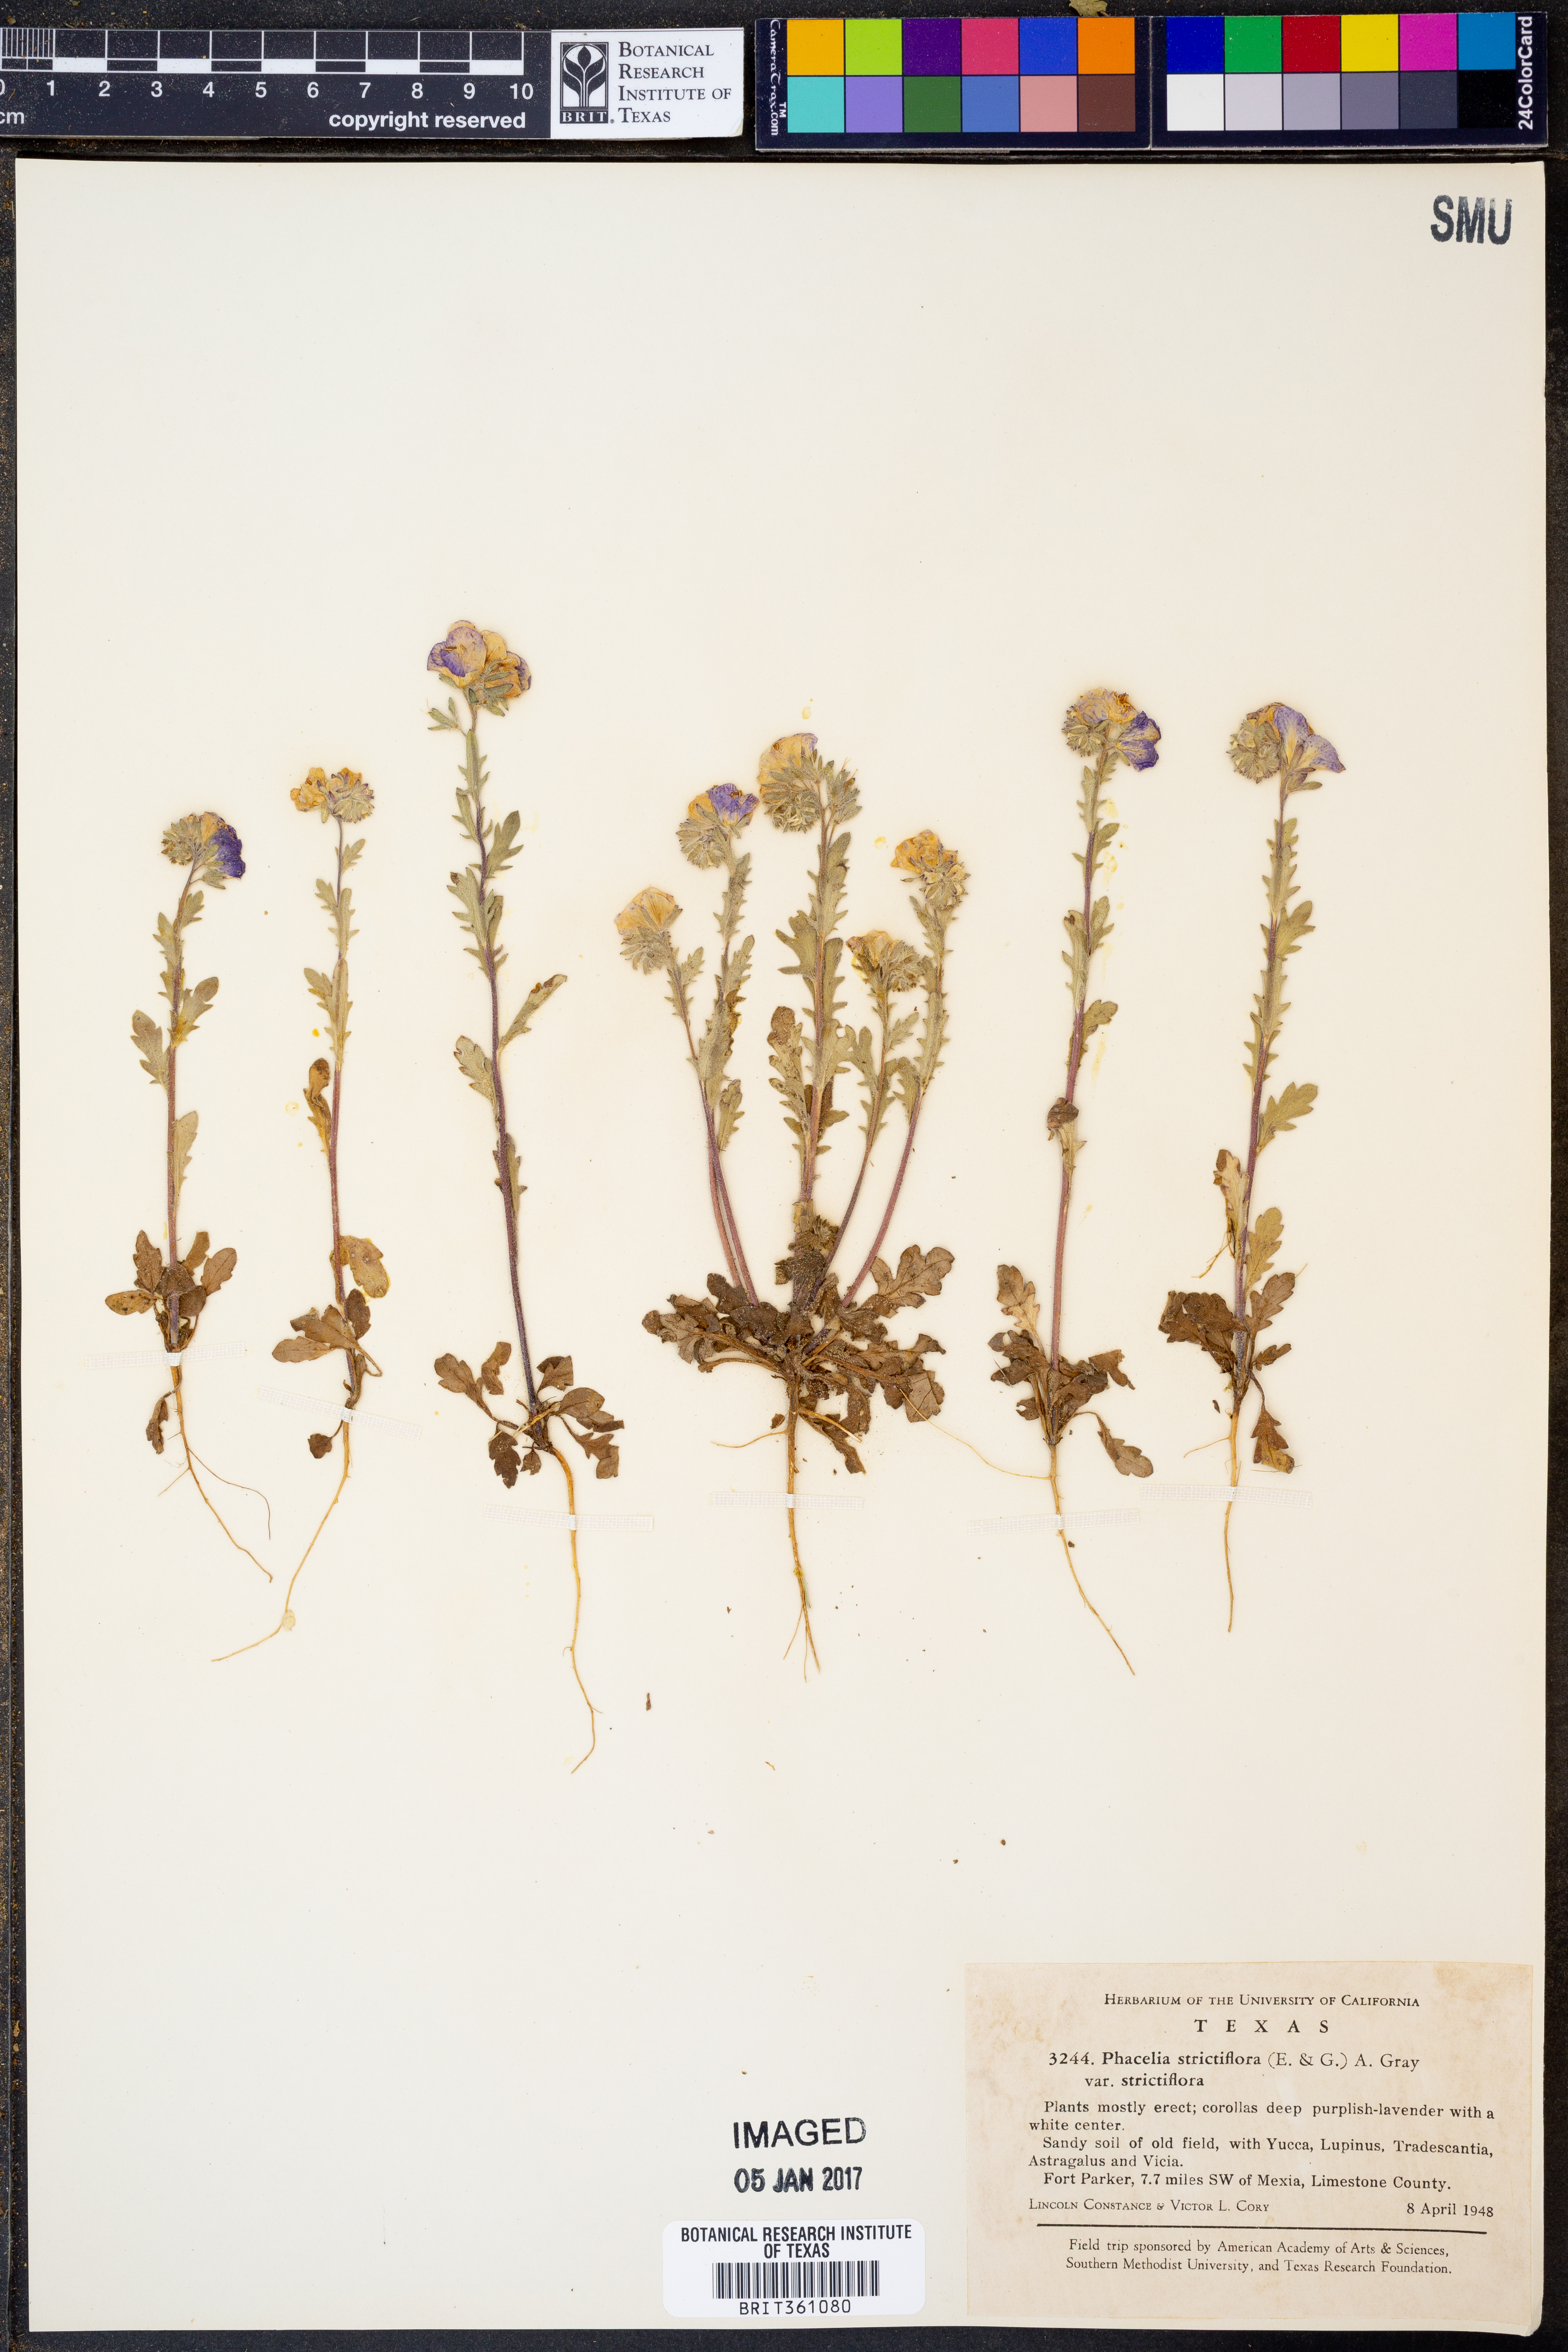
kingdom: Plantae
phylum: Tracheophyta
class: Magnoliopsida
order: Boraginales
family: Hydrophyllaceae
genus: Phacelia
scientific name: Phacelia strictiflora
